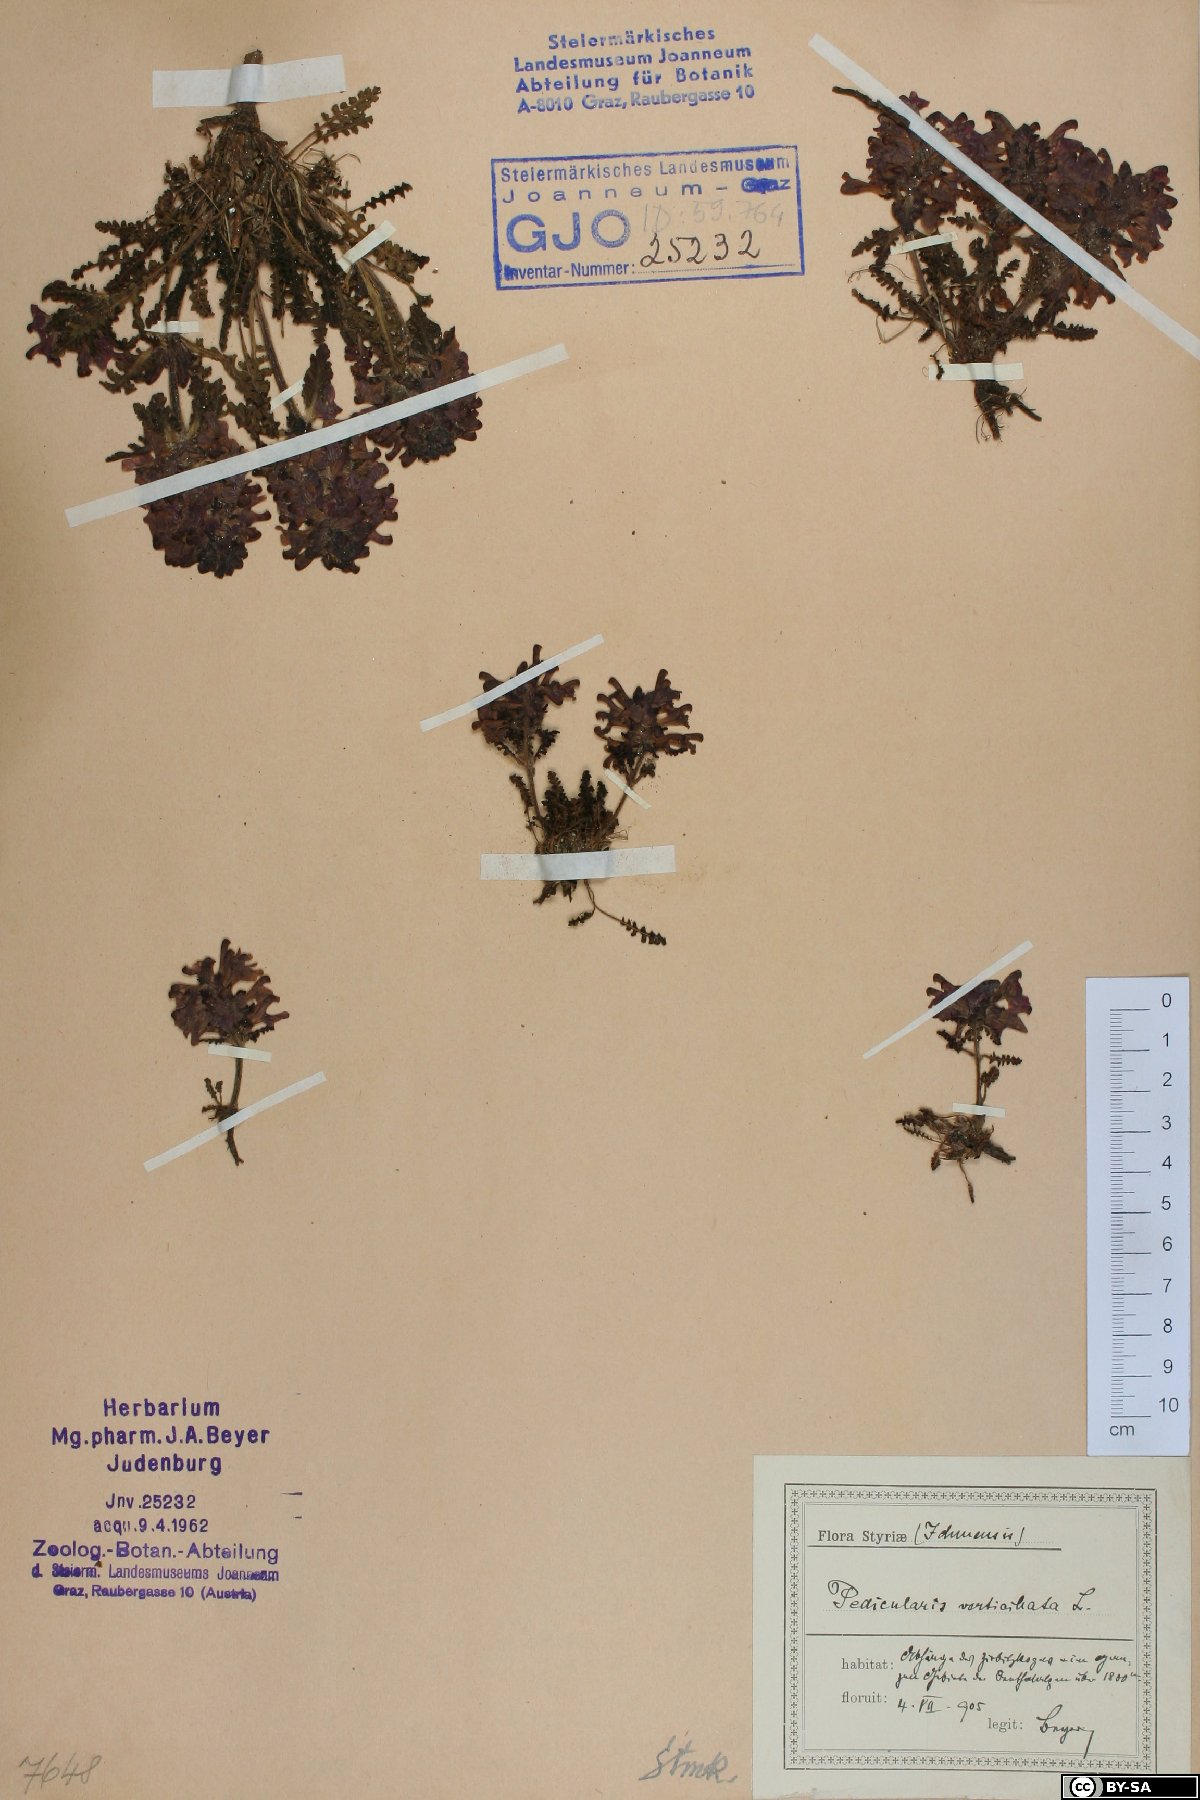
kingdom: Plantae
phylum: Tracheophyta
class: Magnoliopsida
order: Lamiales
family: Orobanchaceae
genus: Pedicularis
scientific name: Pedicularis verticillata
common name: Whorled lousewort
